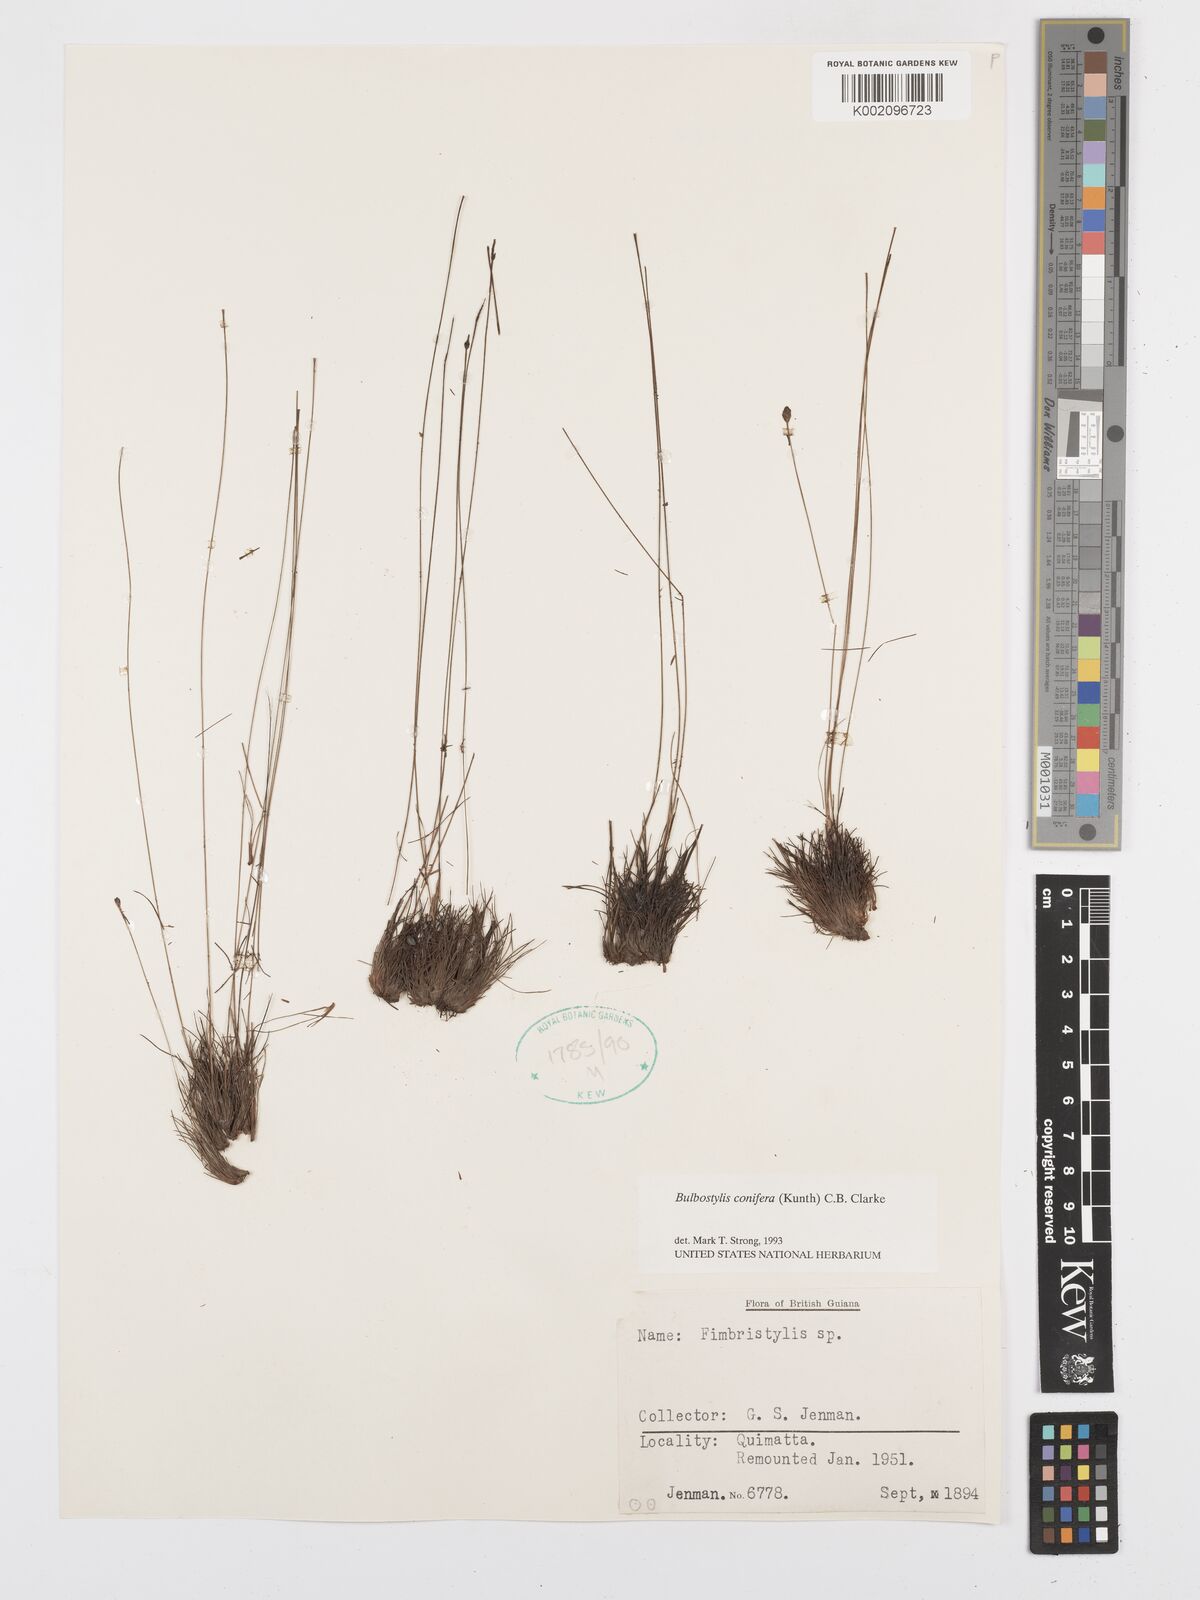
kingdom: Plantae
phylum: Tracheophyta
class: Liliopsida
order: Poales
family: Cyperaceae
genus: Bulbostylis
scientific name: Bulbostylis conifera
